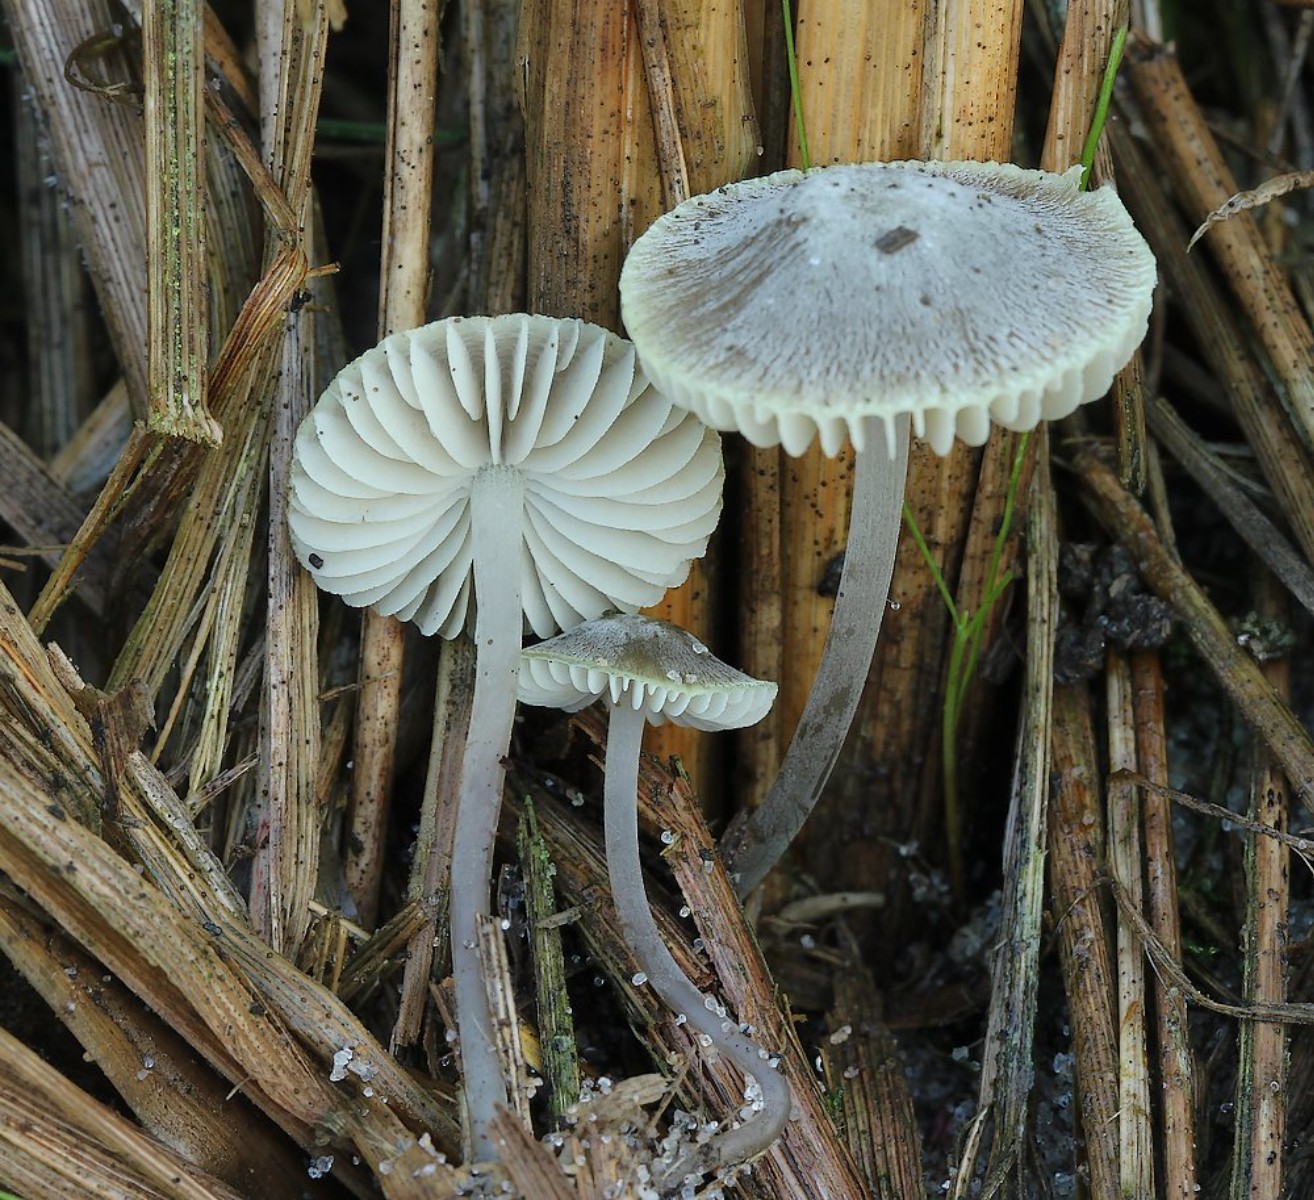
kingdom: Fungi
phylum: Basidiomycota
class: Agaricomycetes
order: Agaricales
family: Mycenaceae
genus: Mycena
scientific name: Mycena chlorantha
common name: klit-huesvamp
